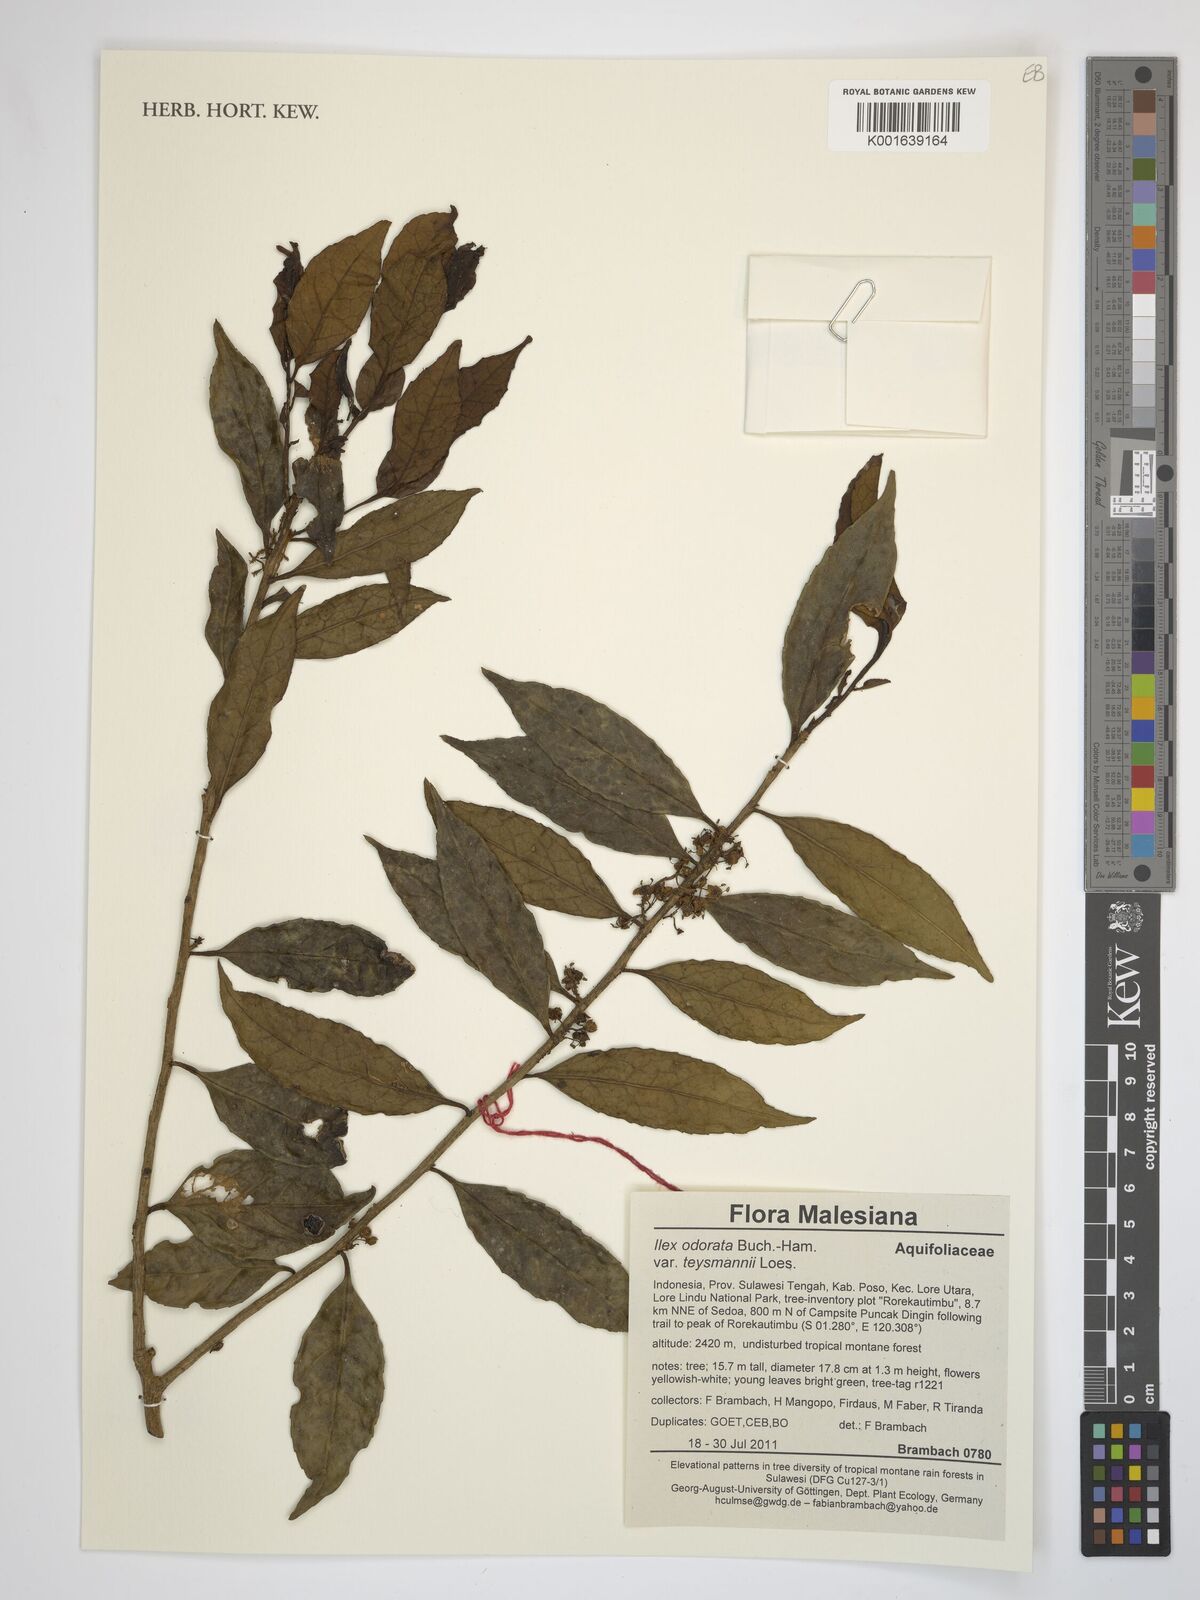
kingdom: Plantae
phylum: Tracheophyta
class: Magnoliopsida
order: Aquifoliales
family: Aquifoliaceae
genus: Ilex
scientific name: Ilex odorata
